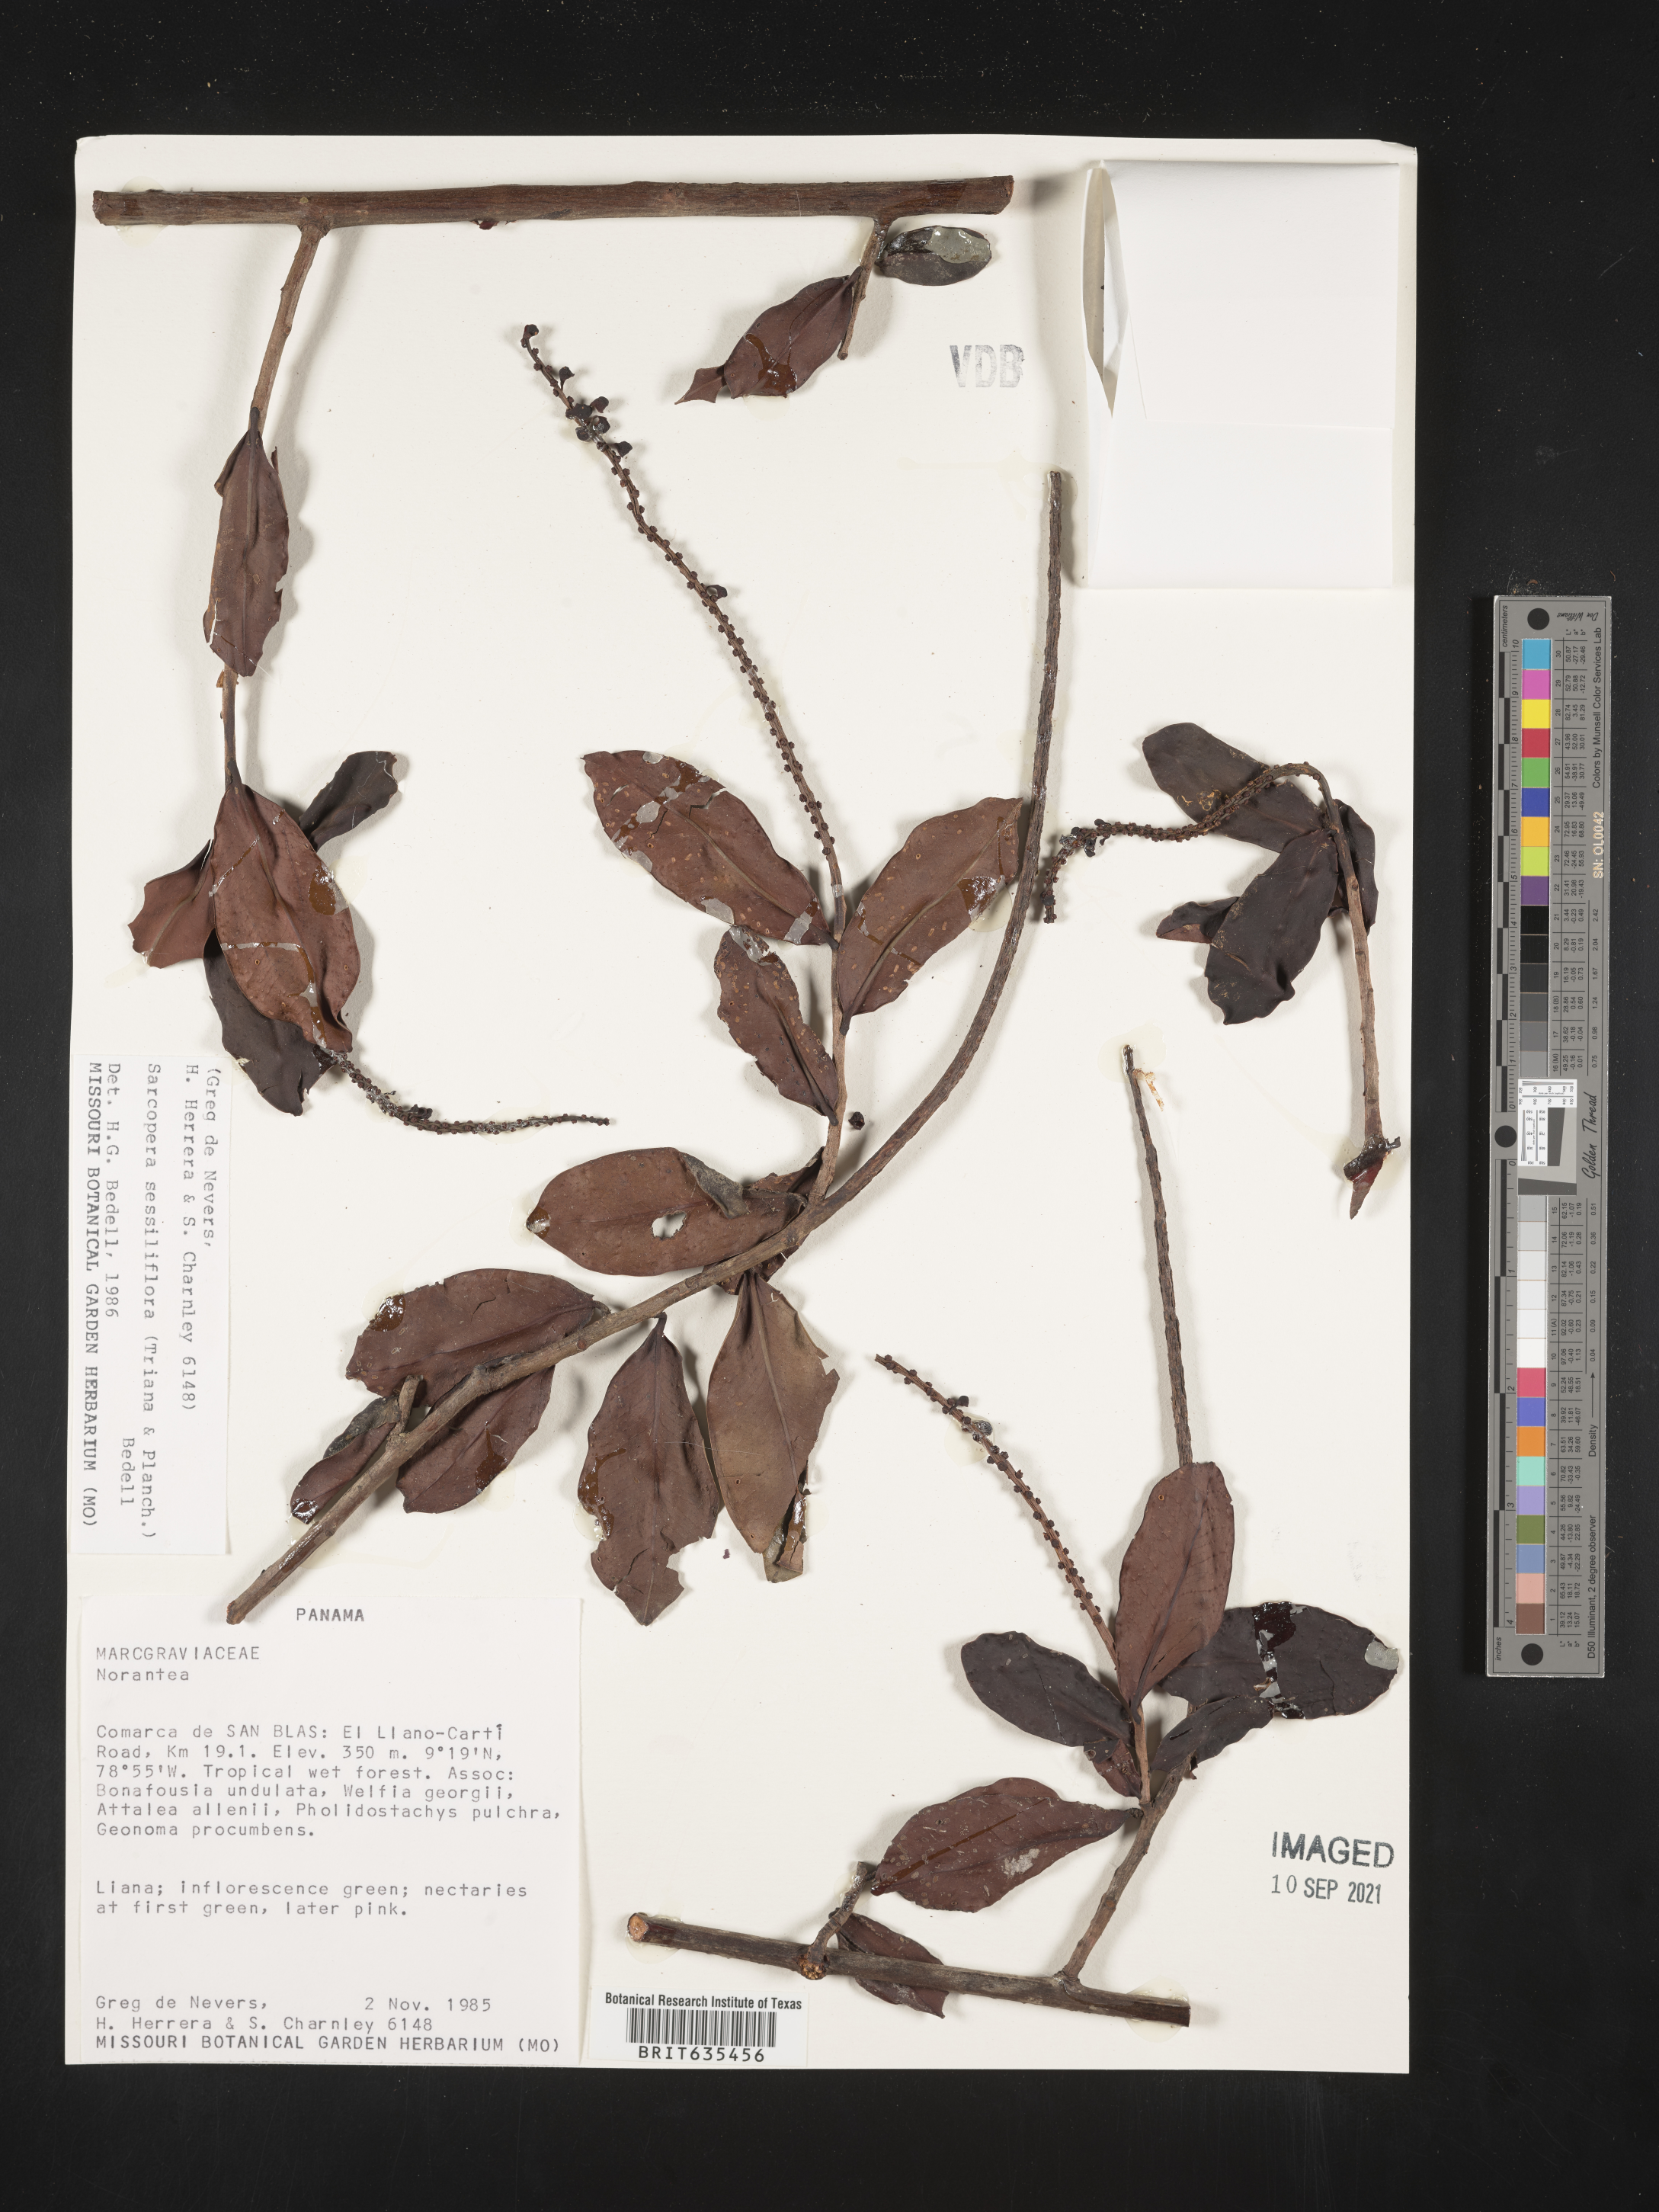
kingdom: Plantae
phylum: Tracheophyta
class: Magnoliopsida
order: Ericales
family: Marcgraviaceae
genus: Sarcopera
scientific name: Sarcopera
